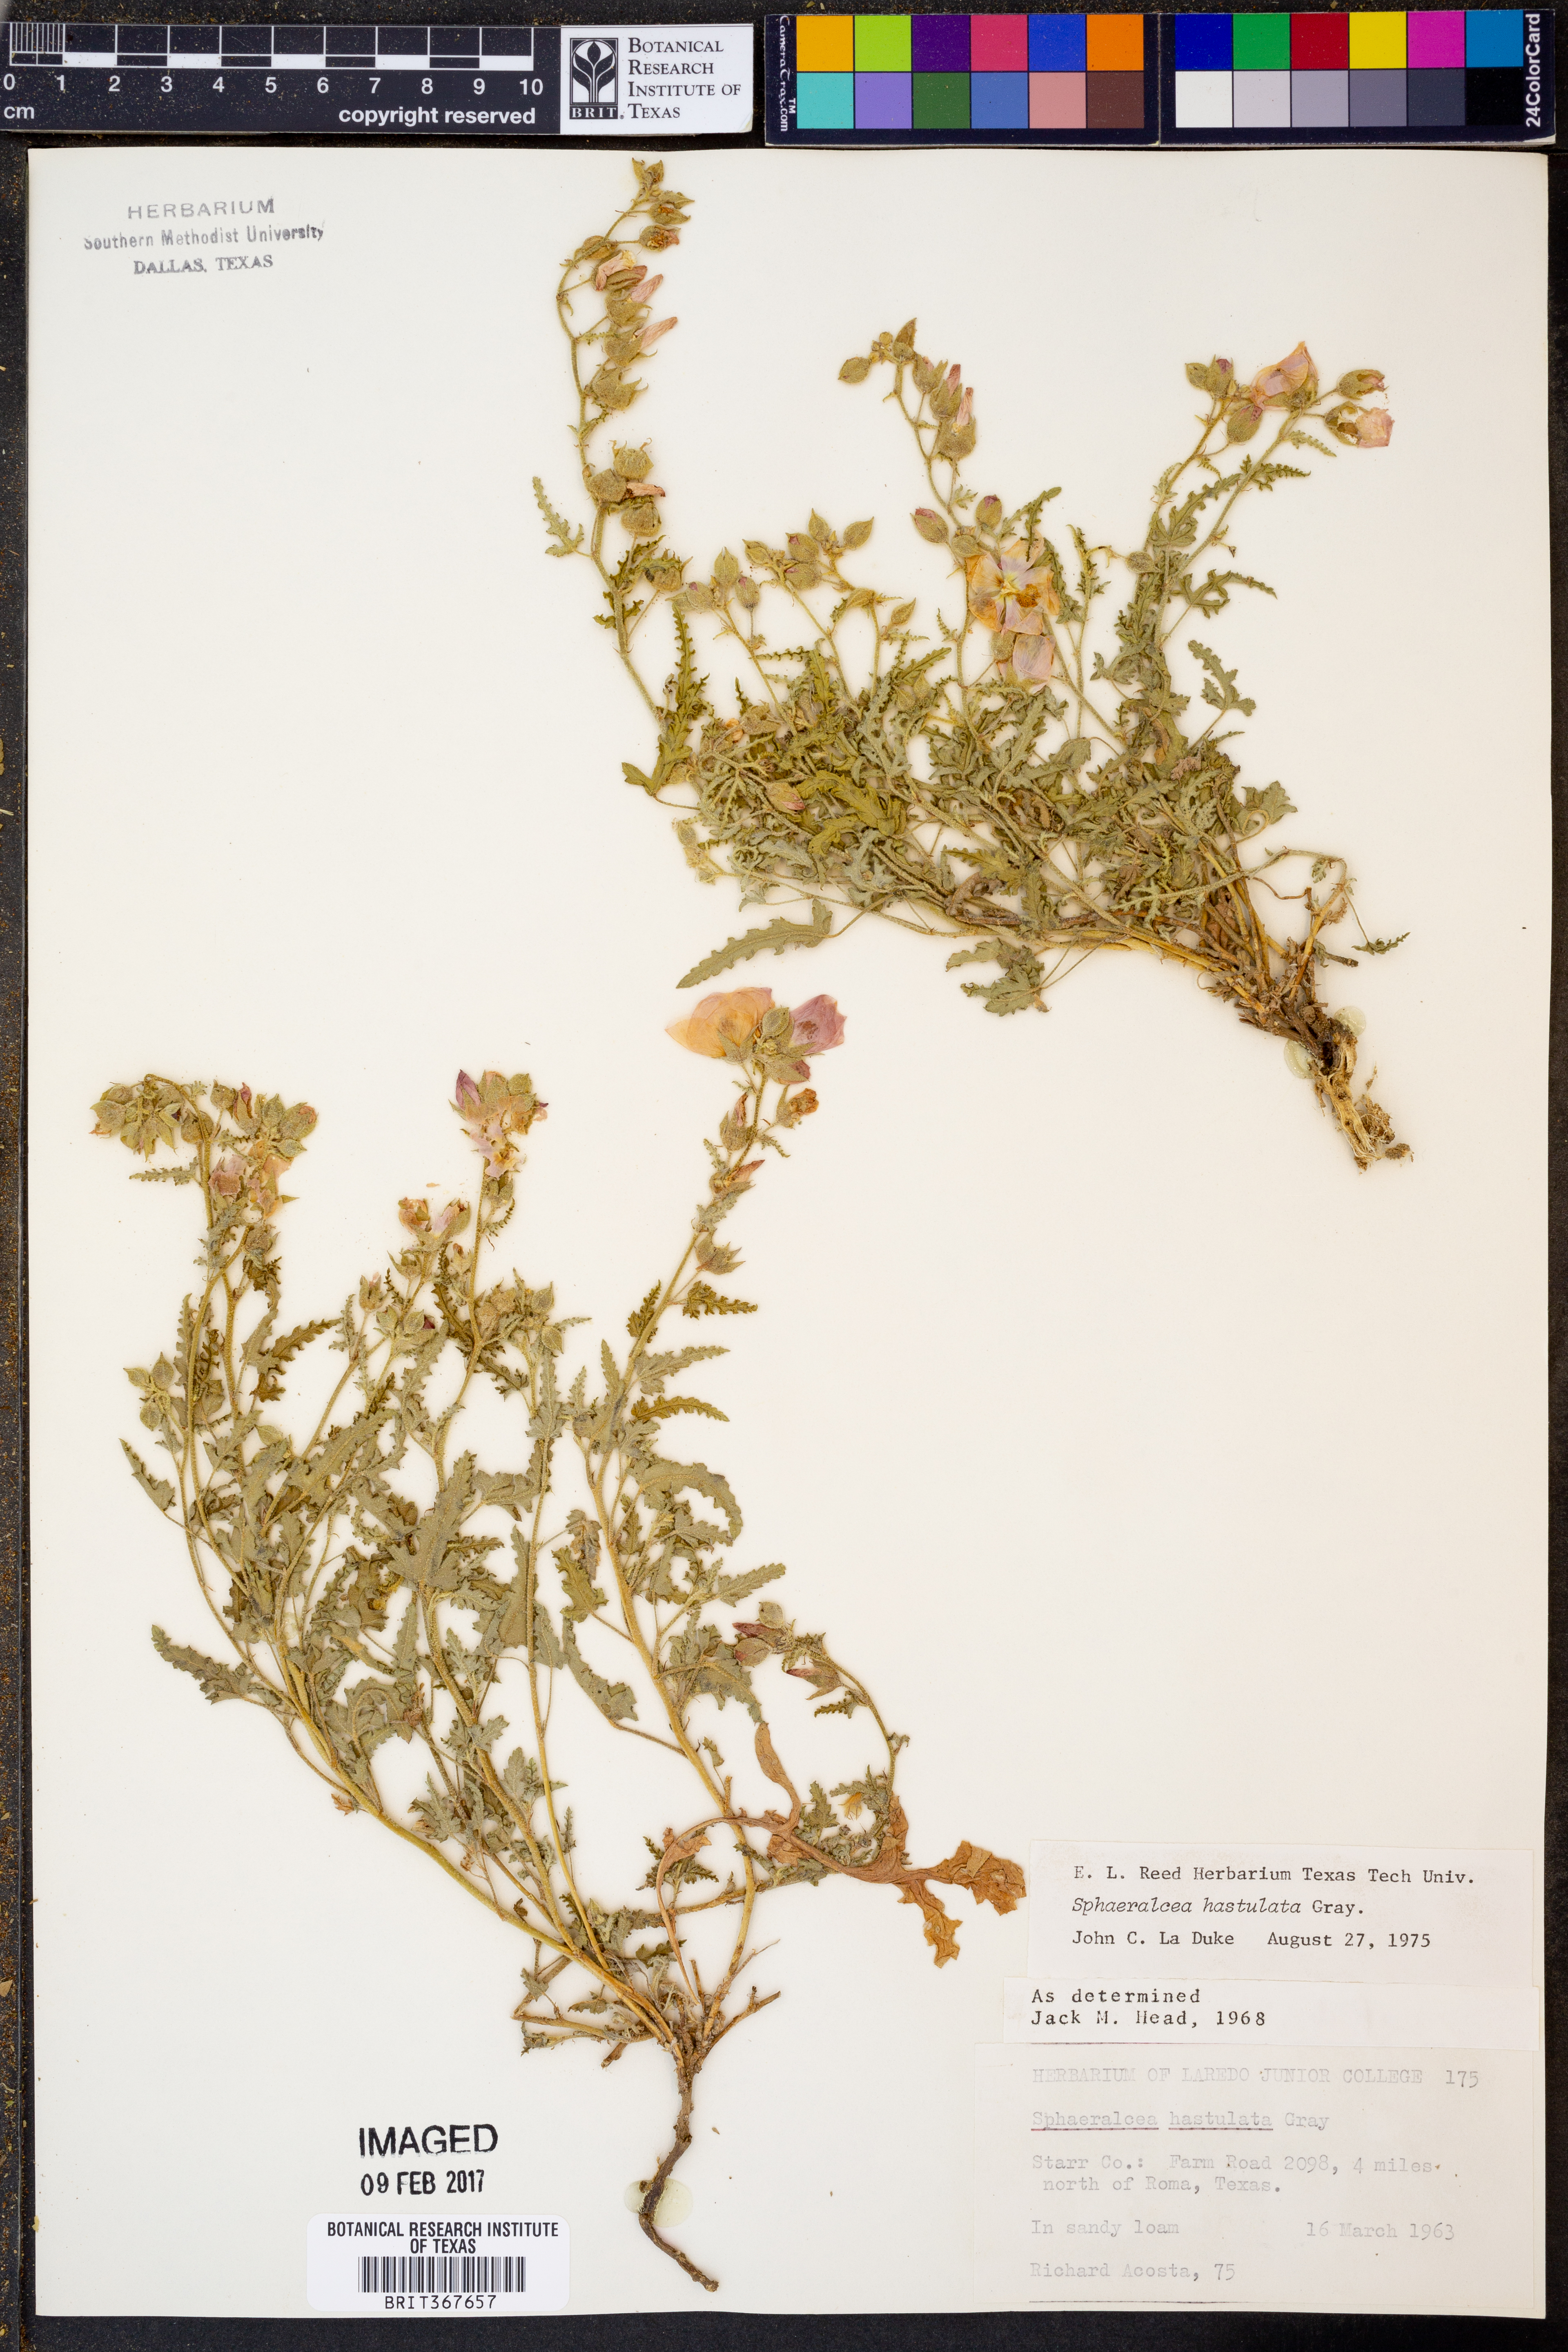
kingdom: Plantae
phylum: Tracheophyta
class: Magnoliopsida
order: Malvales
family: Malvaceae
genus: Sphaeralcea
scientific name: Sphaeralcea hastulata
